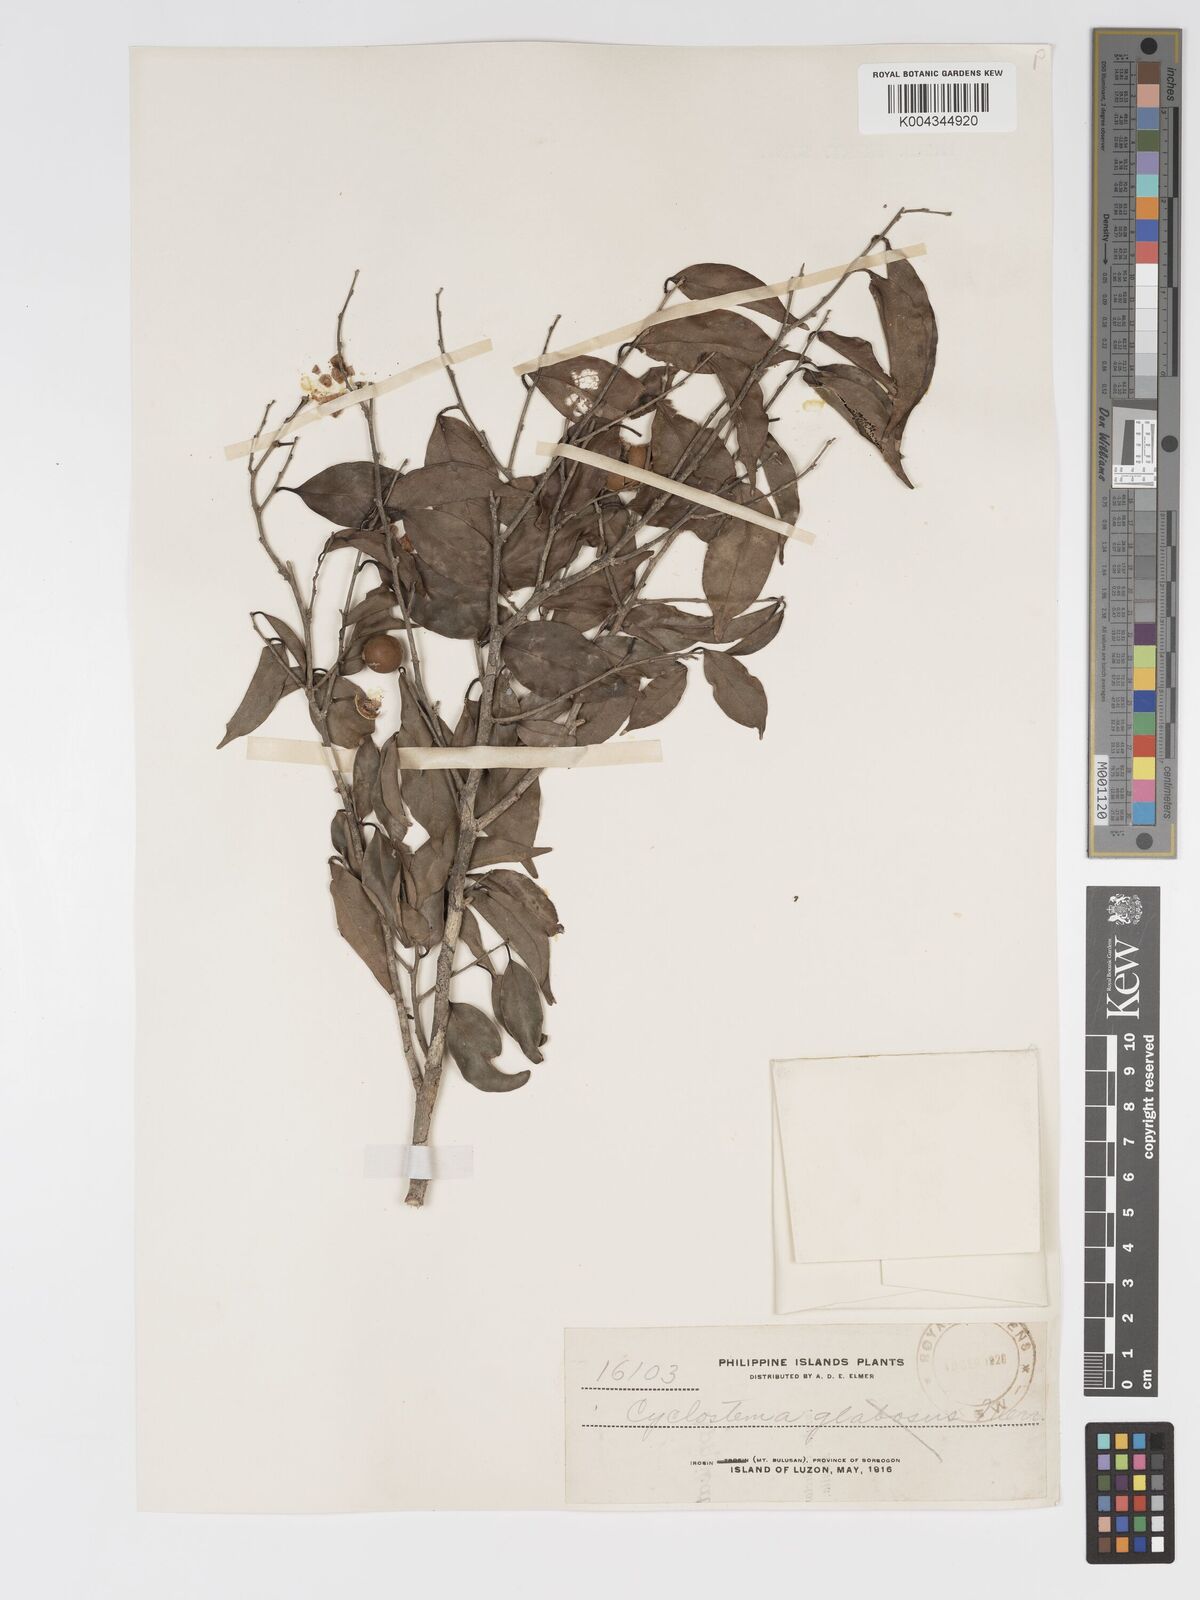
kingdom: Plantae
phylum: Tracheophyta
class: Magnoliopsida
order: Malpighiales
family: Putranjivaceae
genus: Drypetes
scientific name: Drypetes microphylla
